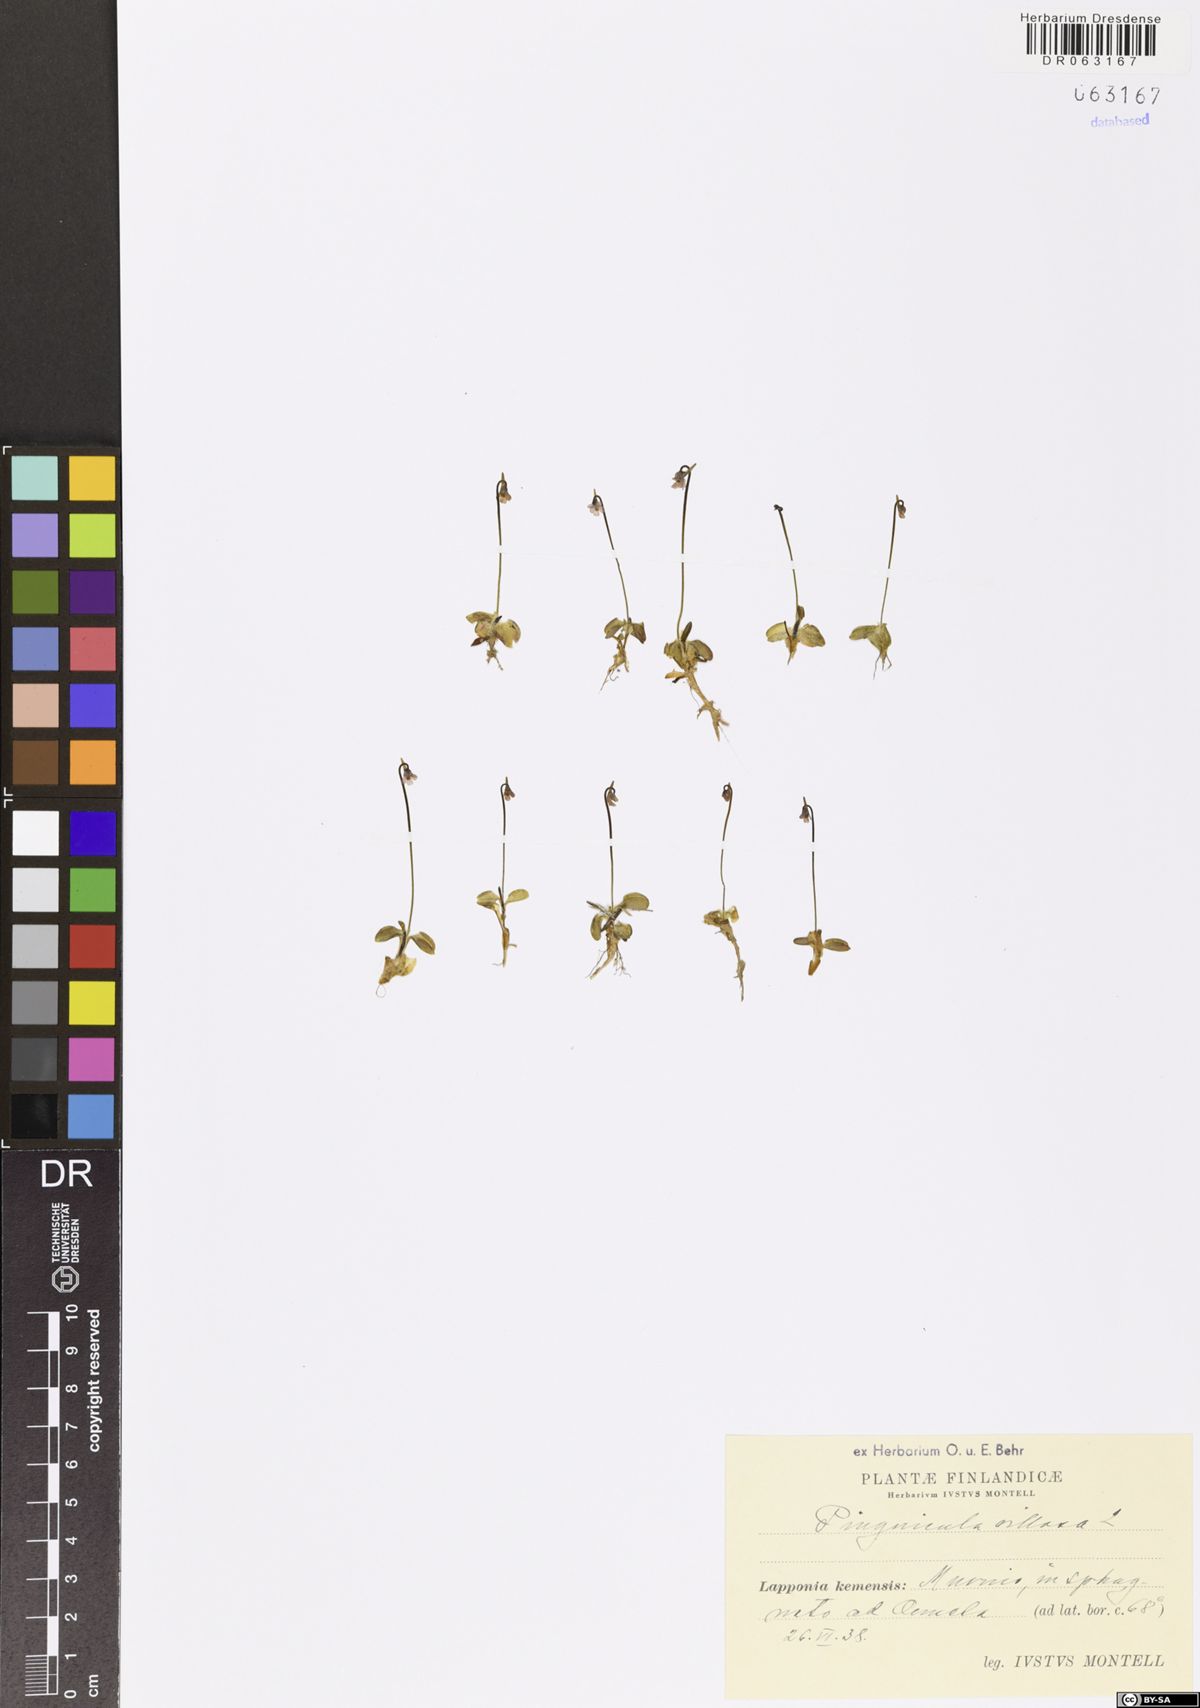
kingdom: Plantae
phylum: Tracheophyta
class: Magnoliopsida
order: Lamiales
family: Lentibulariaceae
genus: Pinguicula
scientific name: Pinguicula villosa
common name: Hairy butterwort
